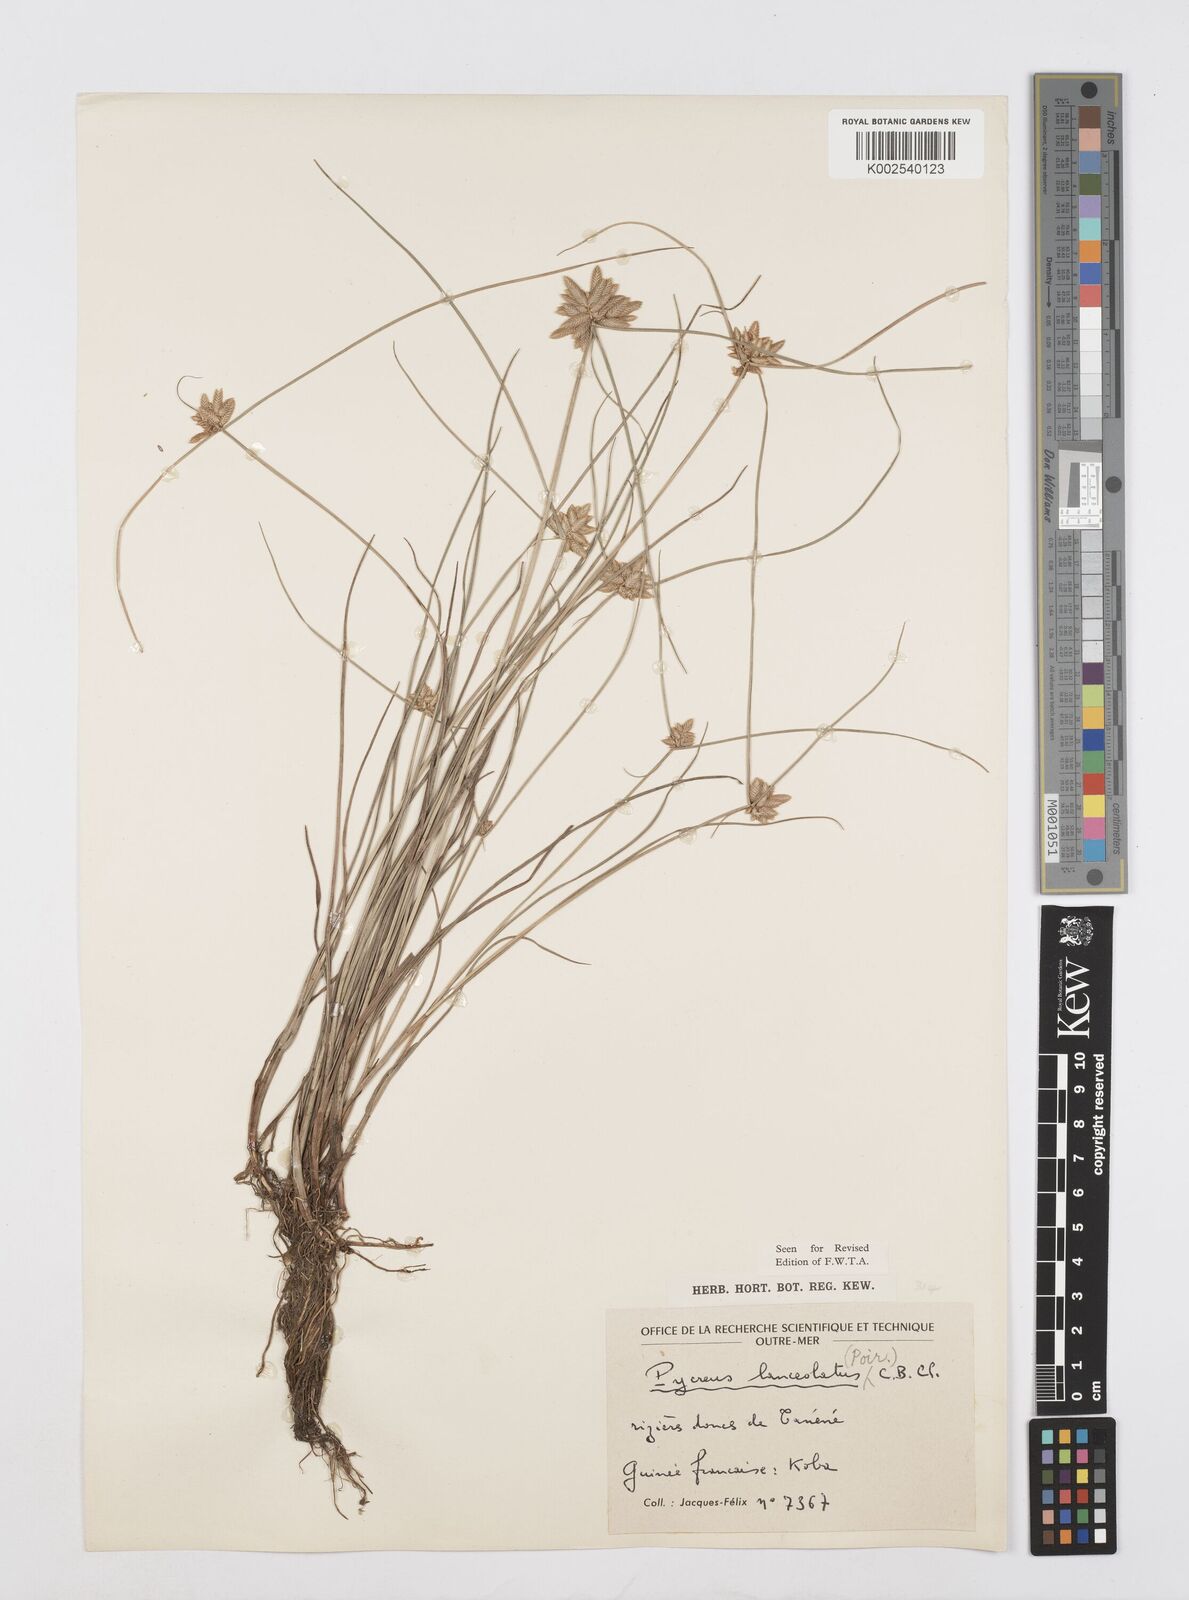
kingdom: Plantae
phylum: Tracheophyta
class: Liliopsida
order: Poales
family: Cyperaceae
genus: Cyperus
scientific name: Cyperus
